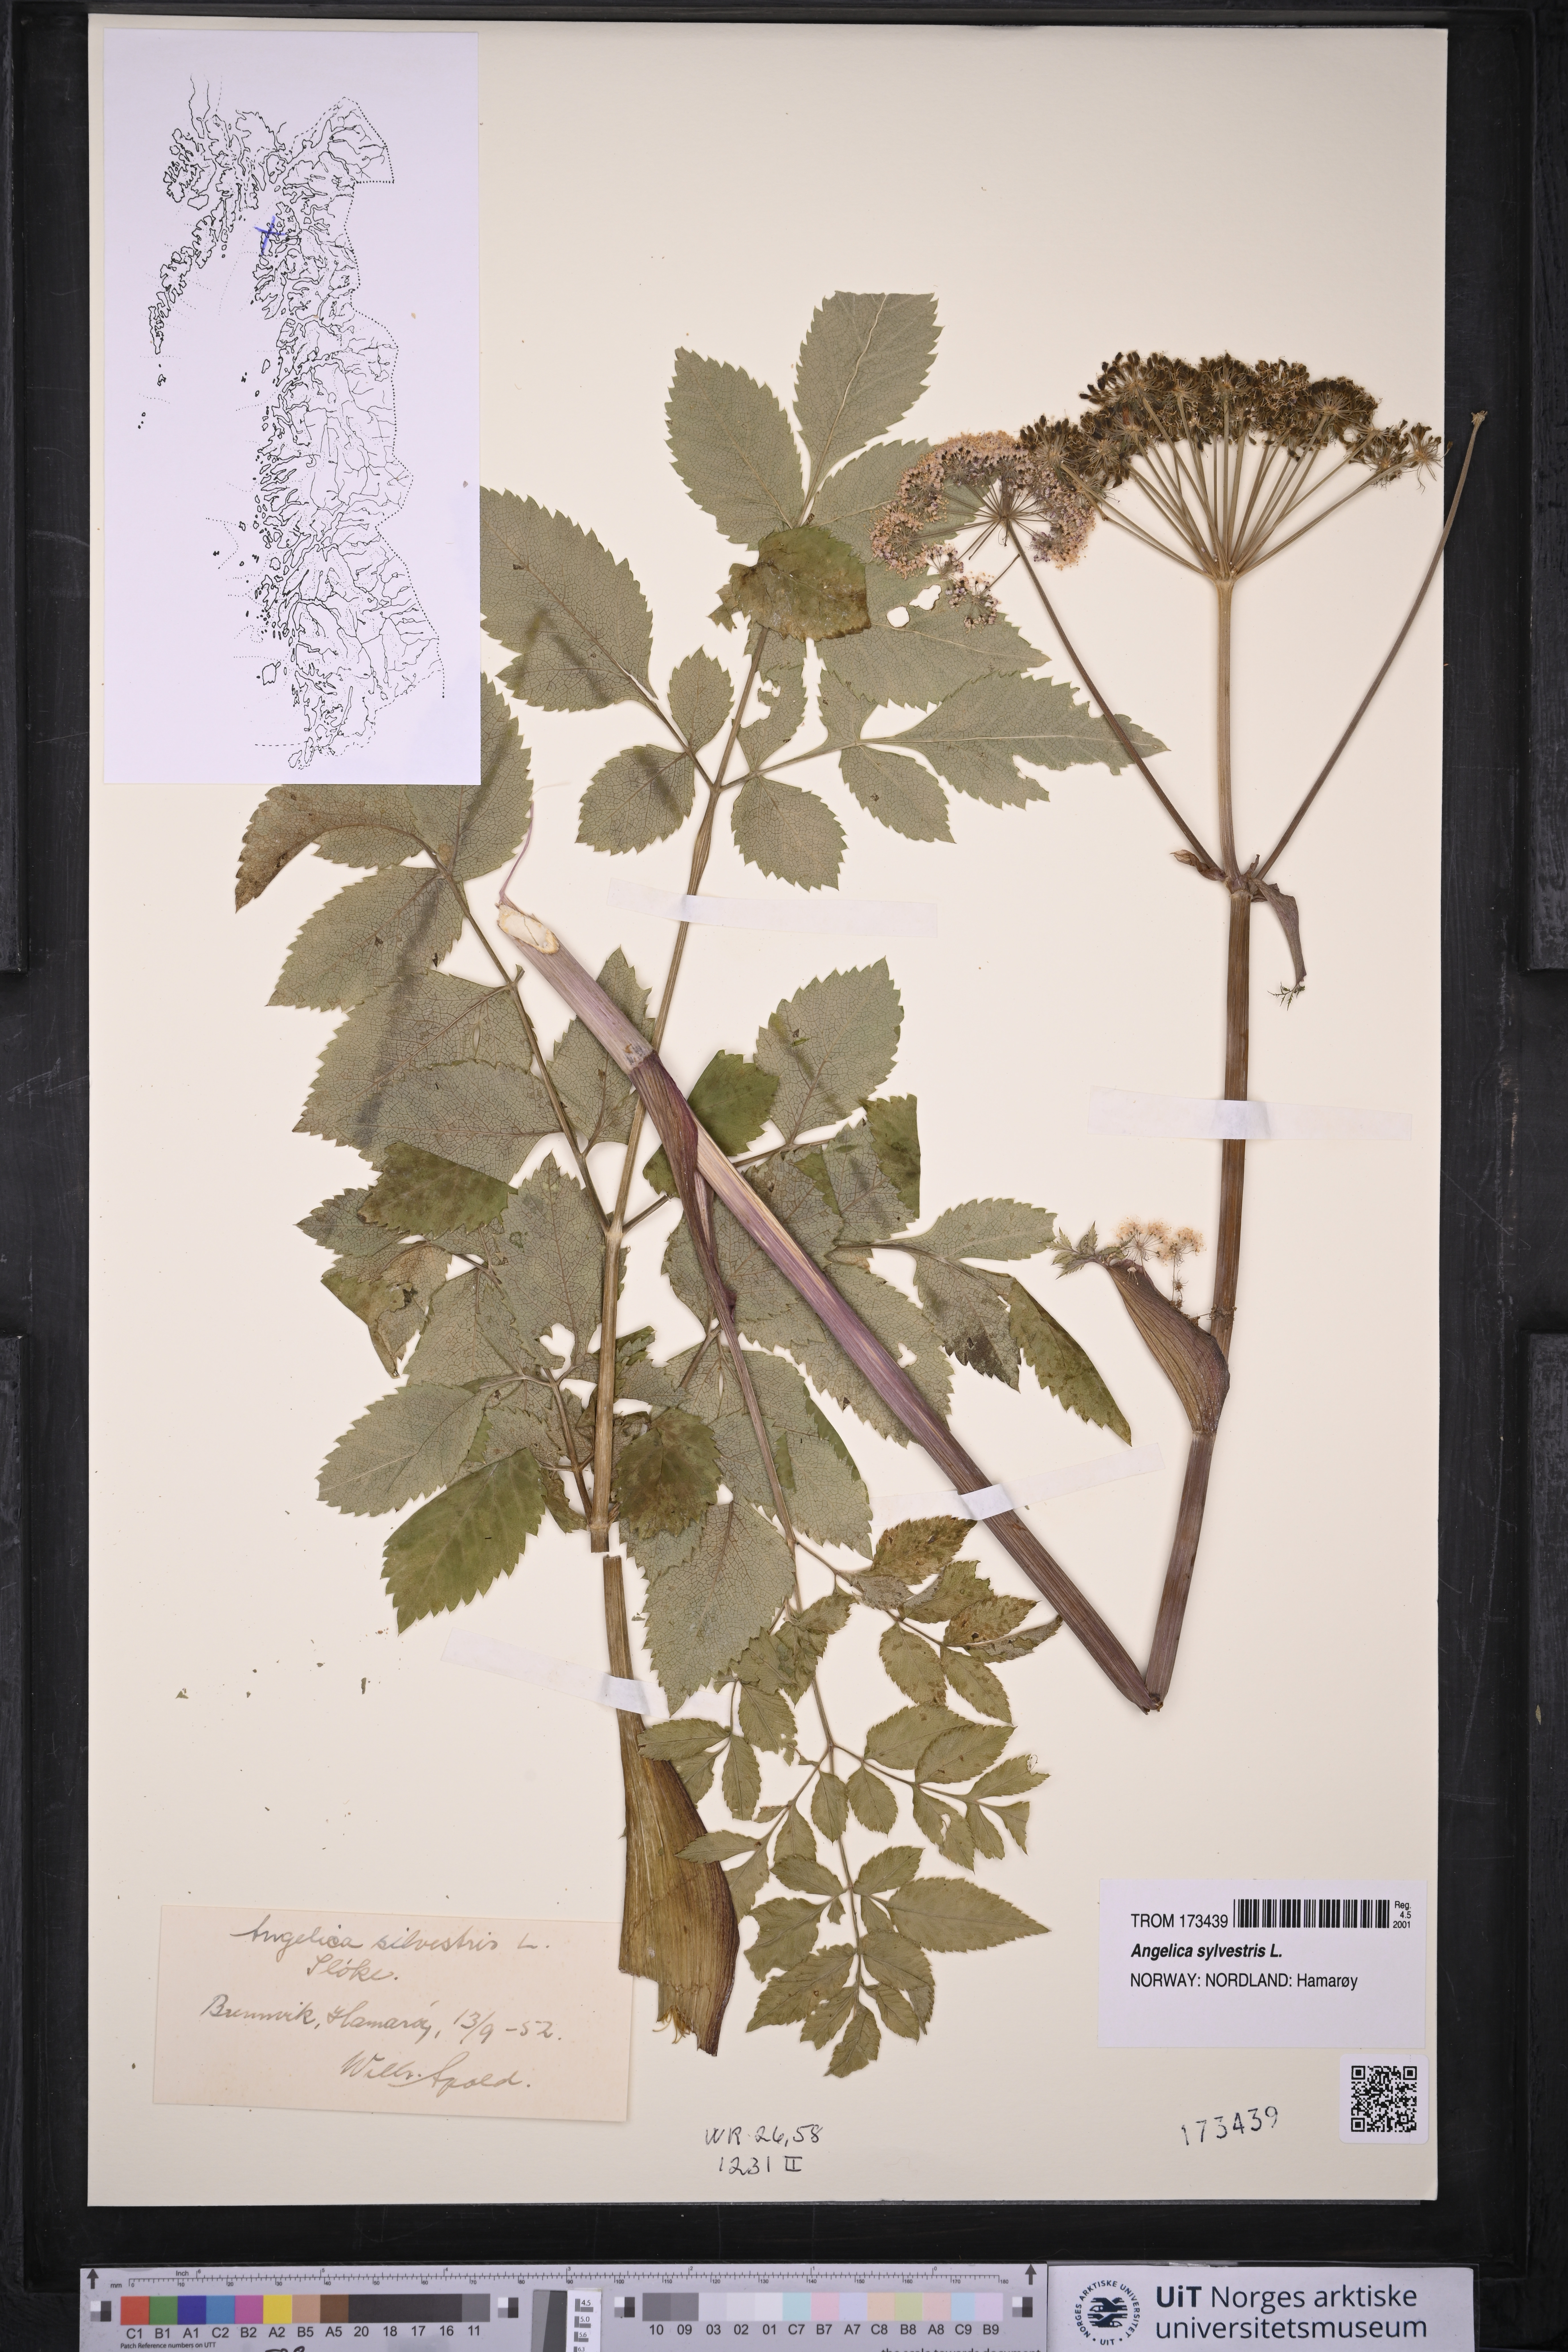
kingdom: Plantae
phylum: Tracheophyta
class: Magnoliopsida
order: Apiales
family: Apiaceae
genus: Angelica
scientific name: Angelica sylvestris
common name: Wild angelica
